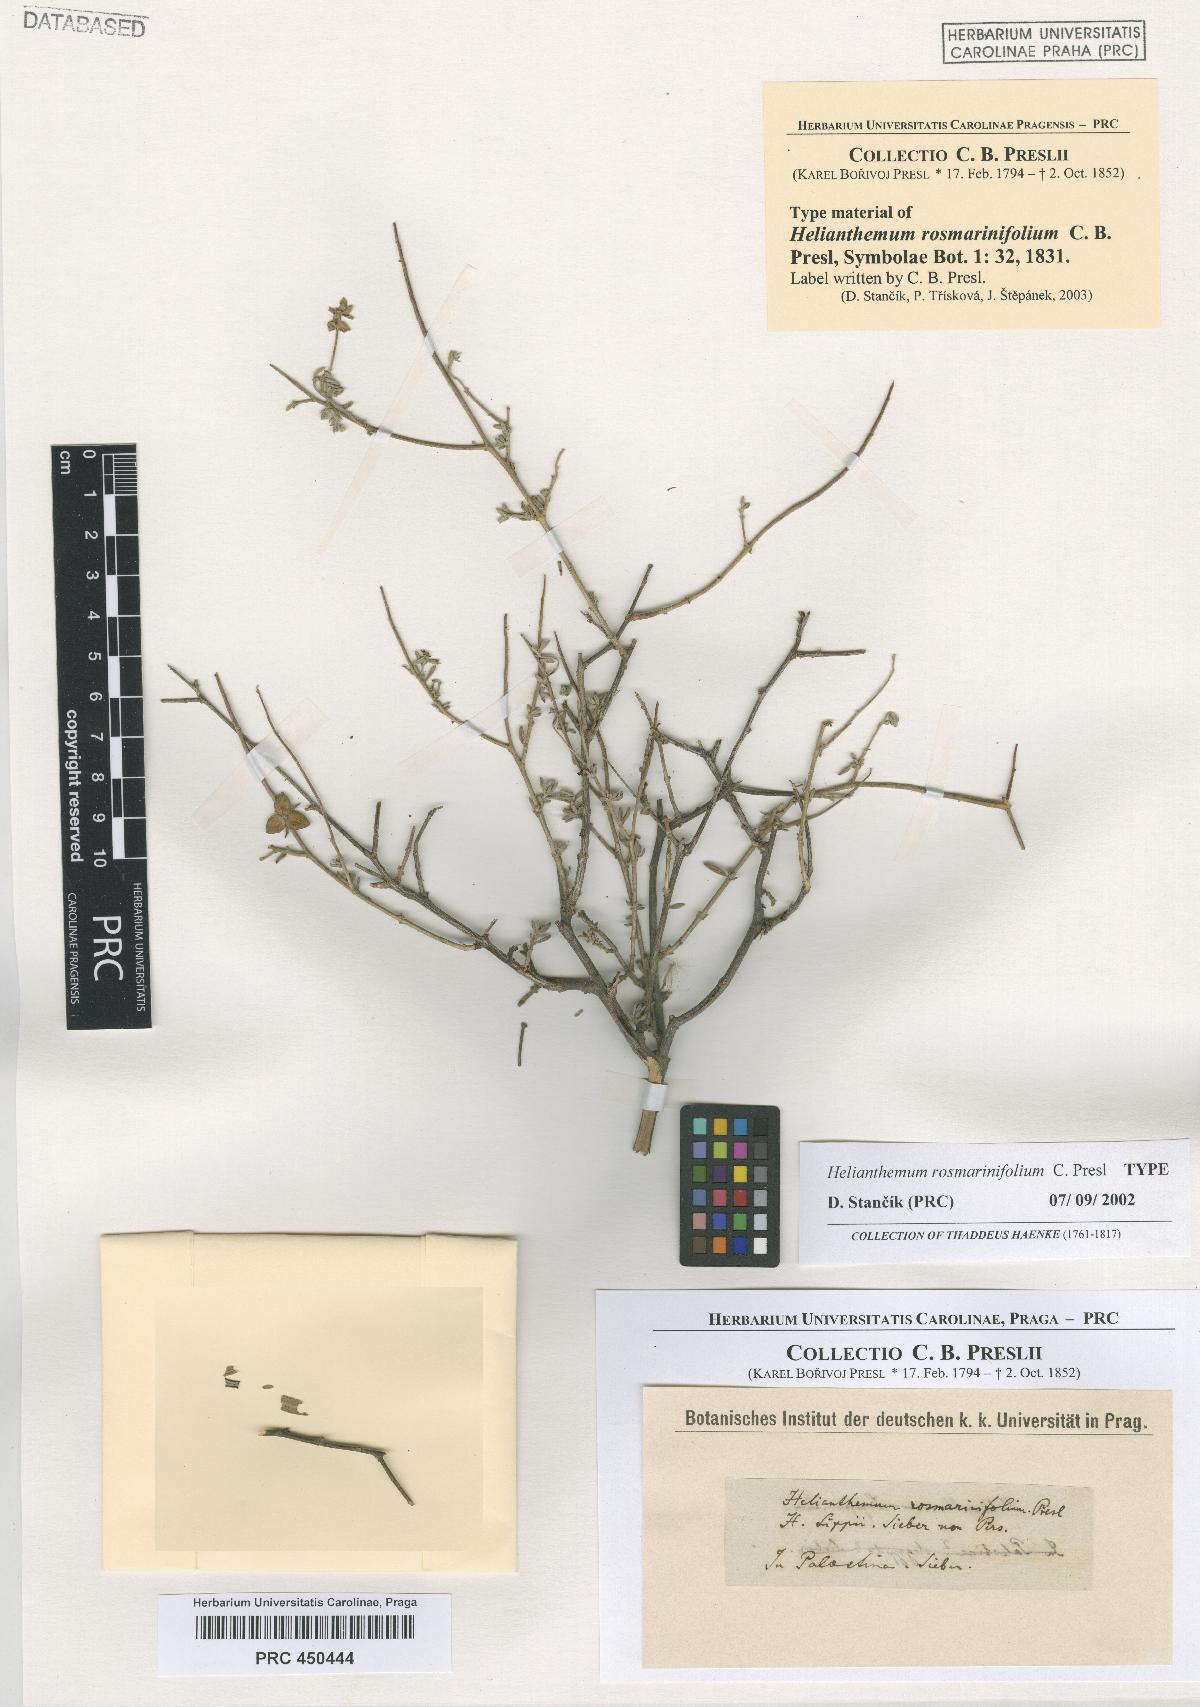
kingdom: Plantae
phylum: Tracheophyta
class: Magnoliopsida
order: Malvales
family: Cistaceae
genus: Helianthemum
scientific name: Helianthemum lippii
